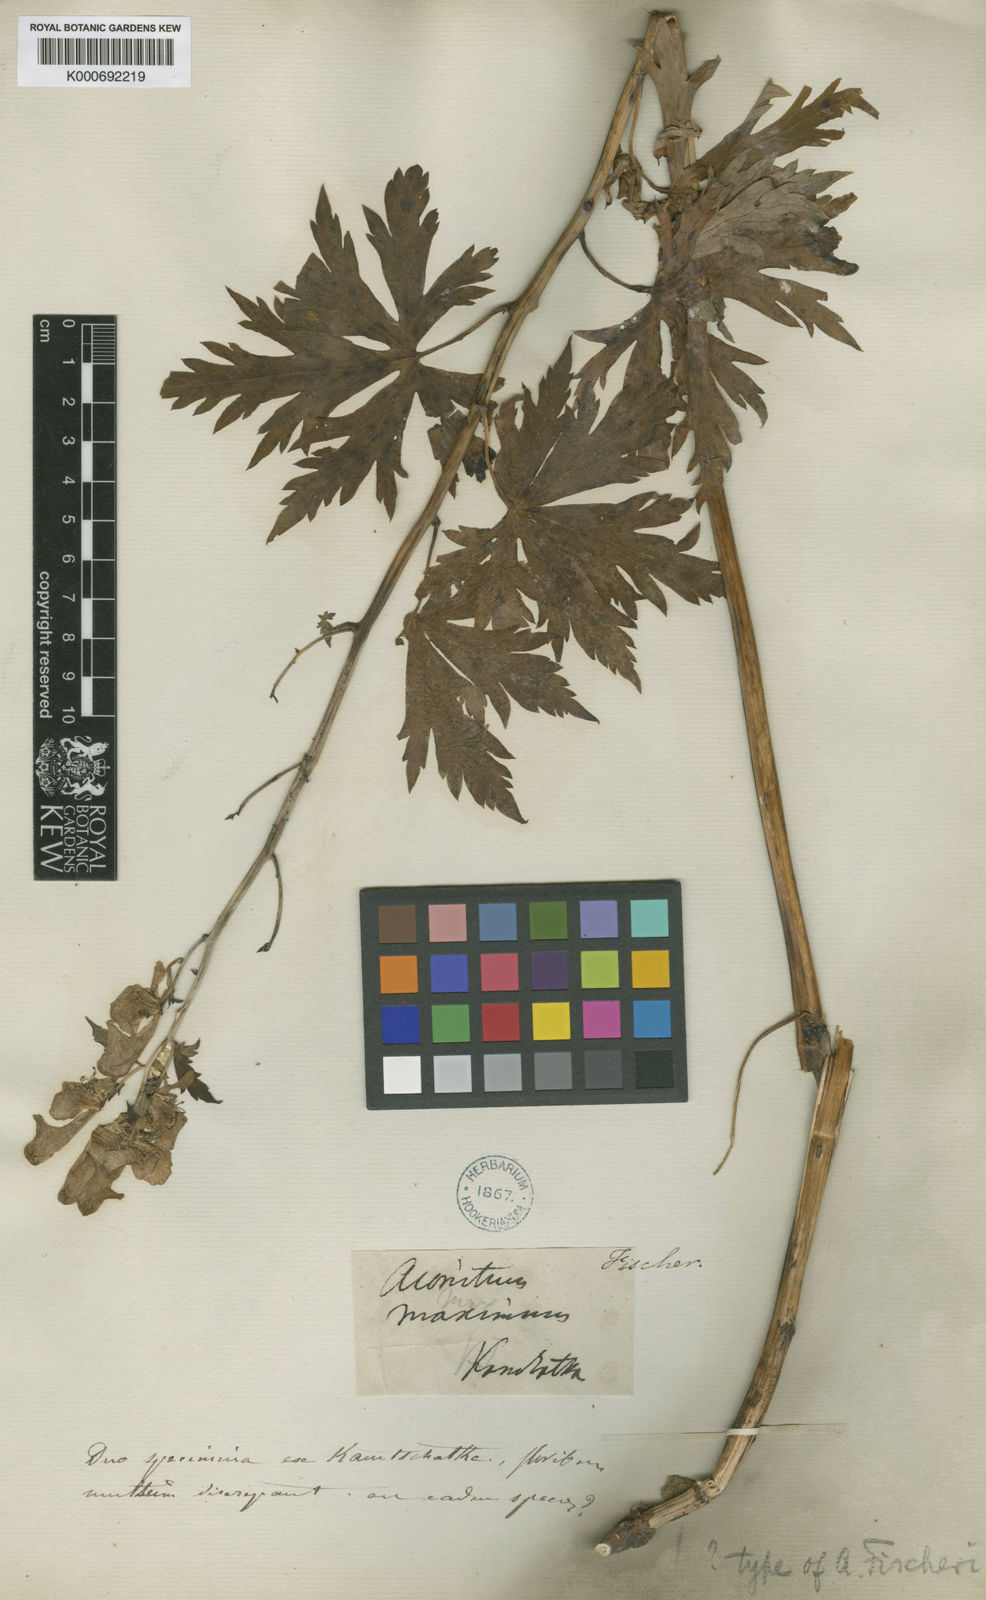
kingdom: Plantae
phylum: Tracheophyta
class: Magnoliopsida
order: Ranunculales
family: Ranunculaceae
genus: Aconitum
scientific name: Aconitum fischeri
